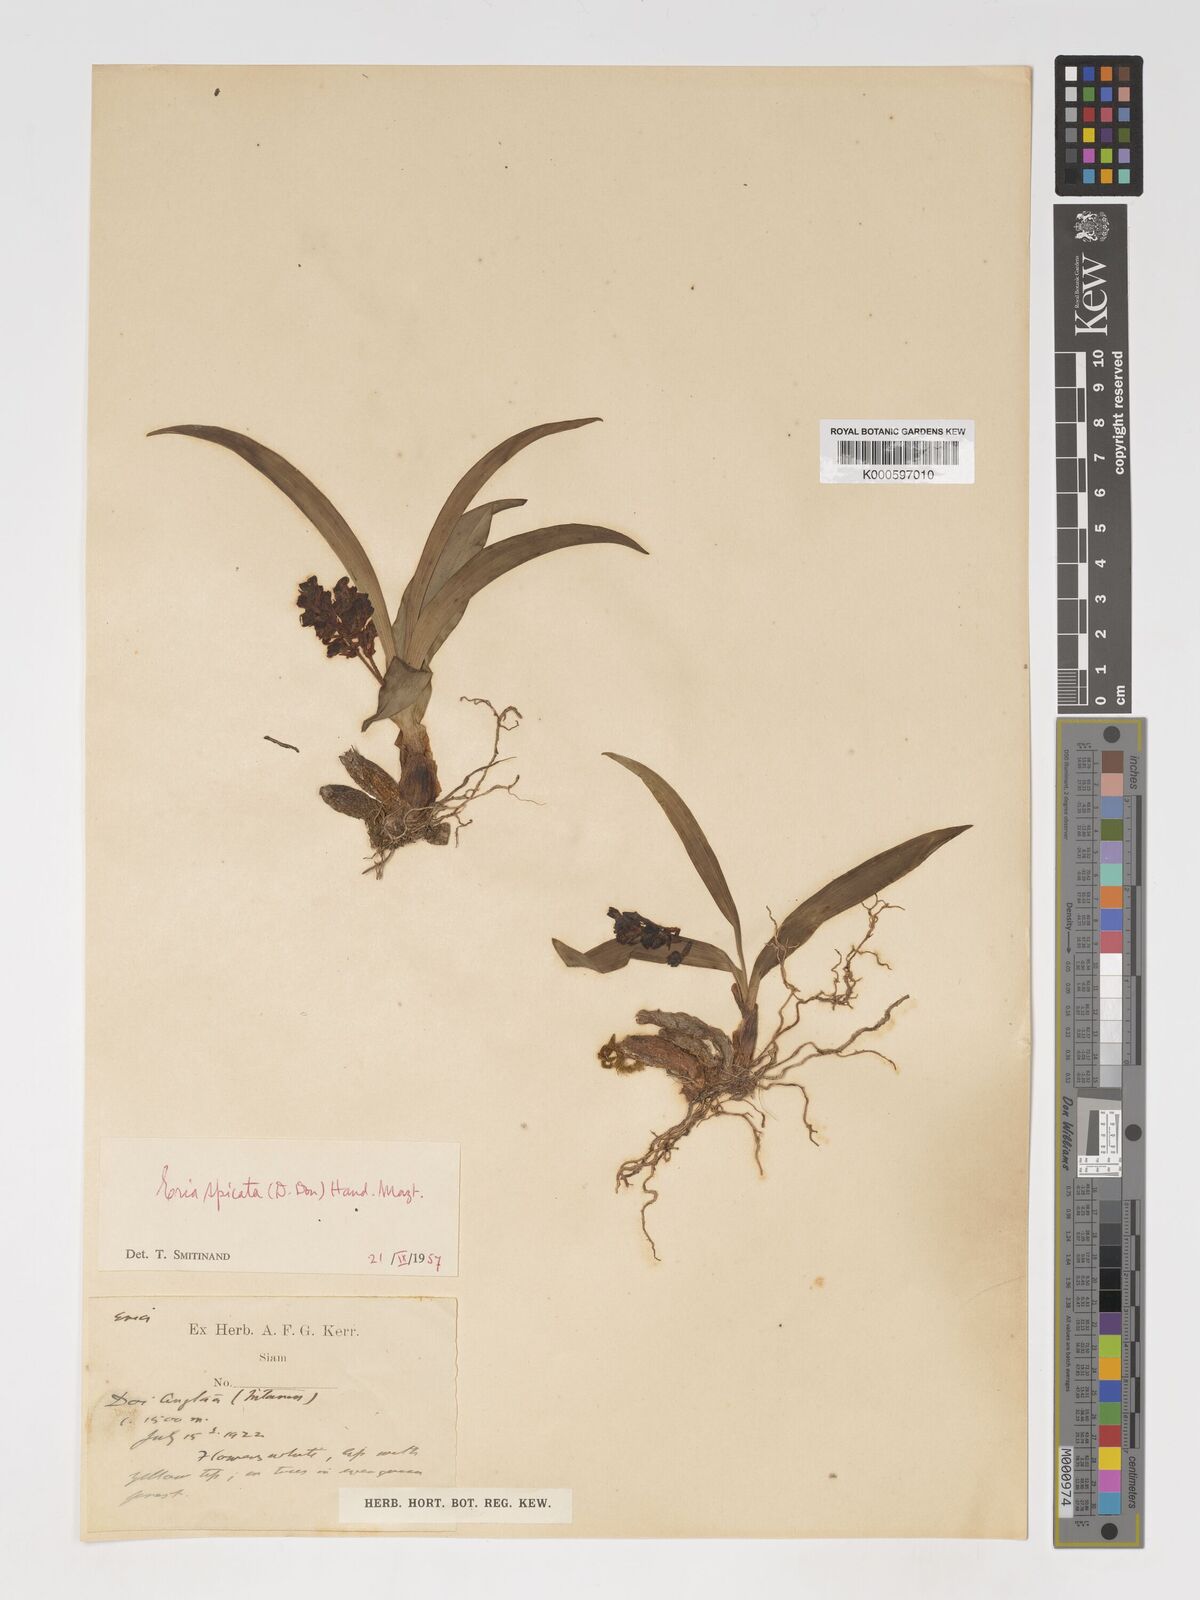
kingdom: Plantae
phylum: Tracheophyta
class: Liliopsida
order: Asparagales
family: Orchidaceae
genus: Pinalia
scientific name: Pinalia spicata
